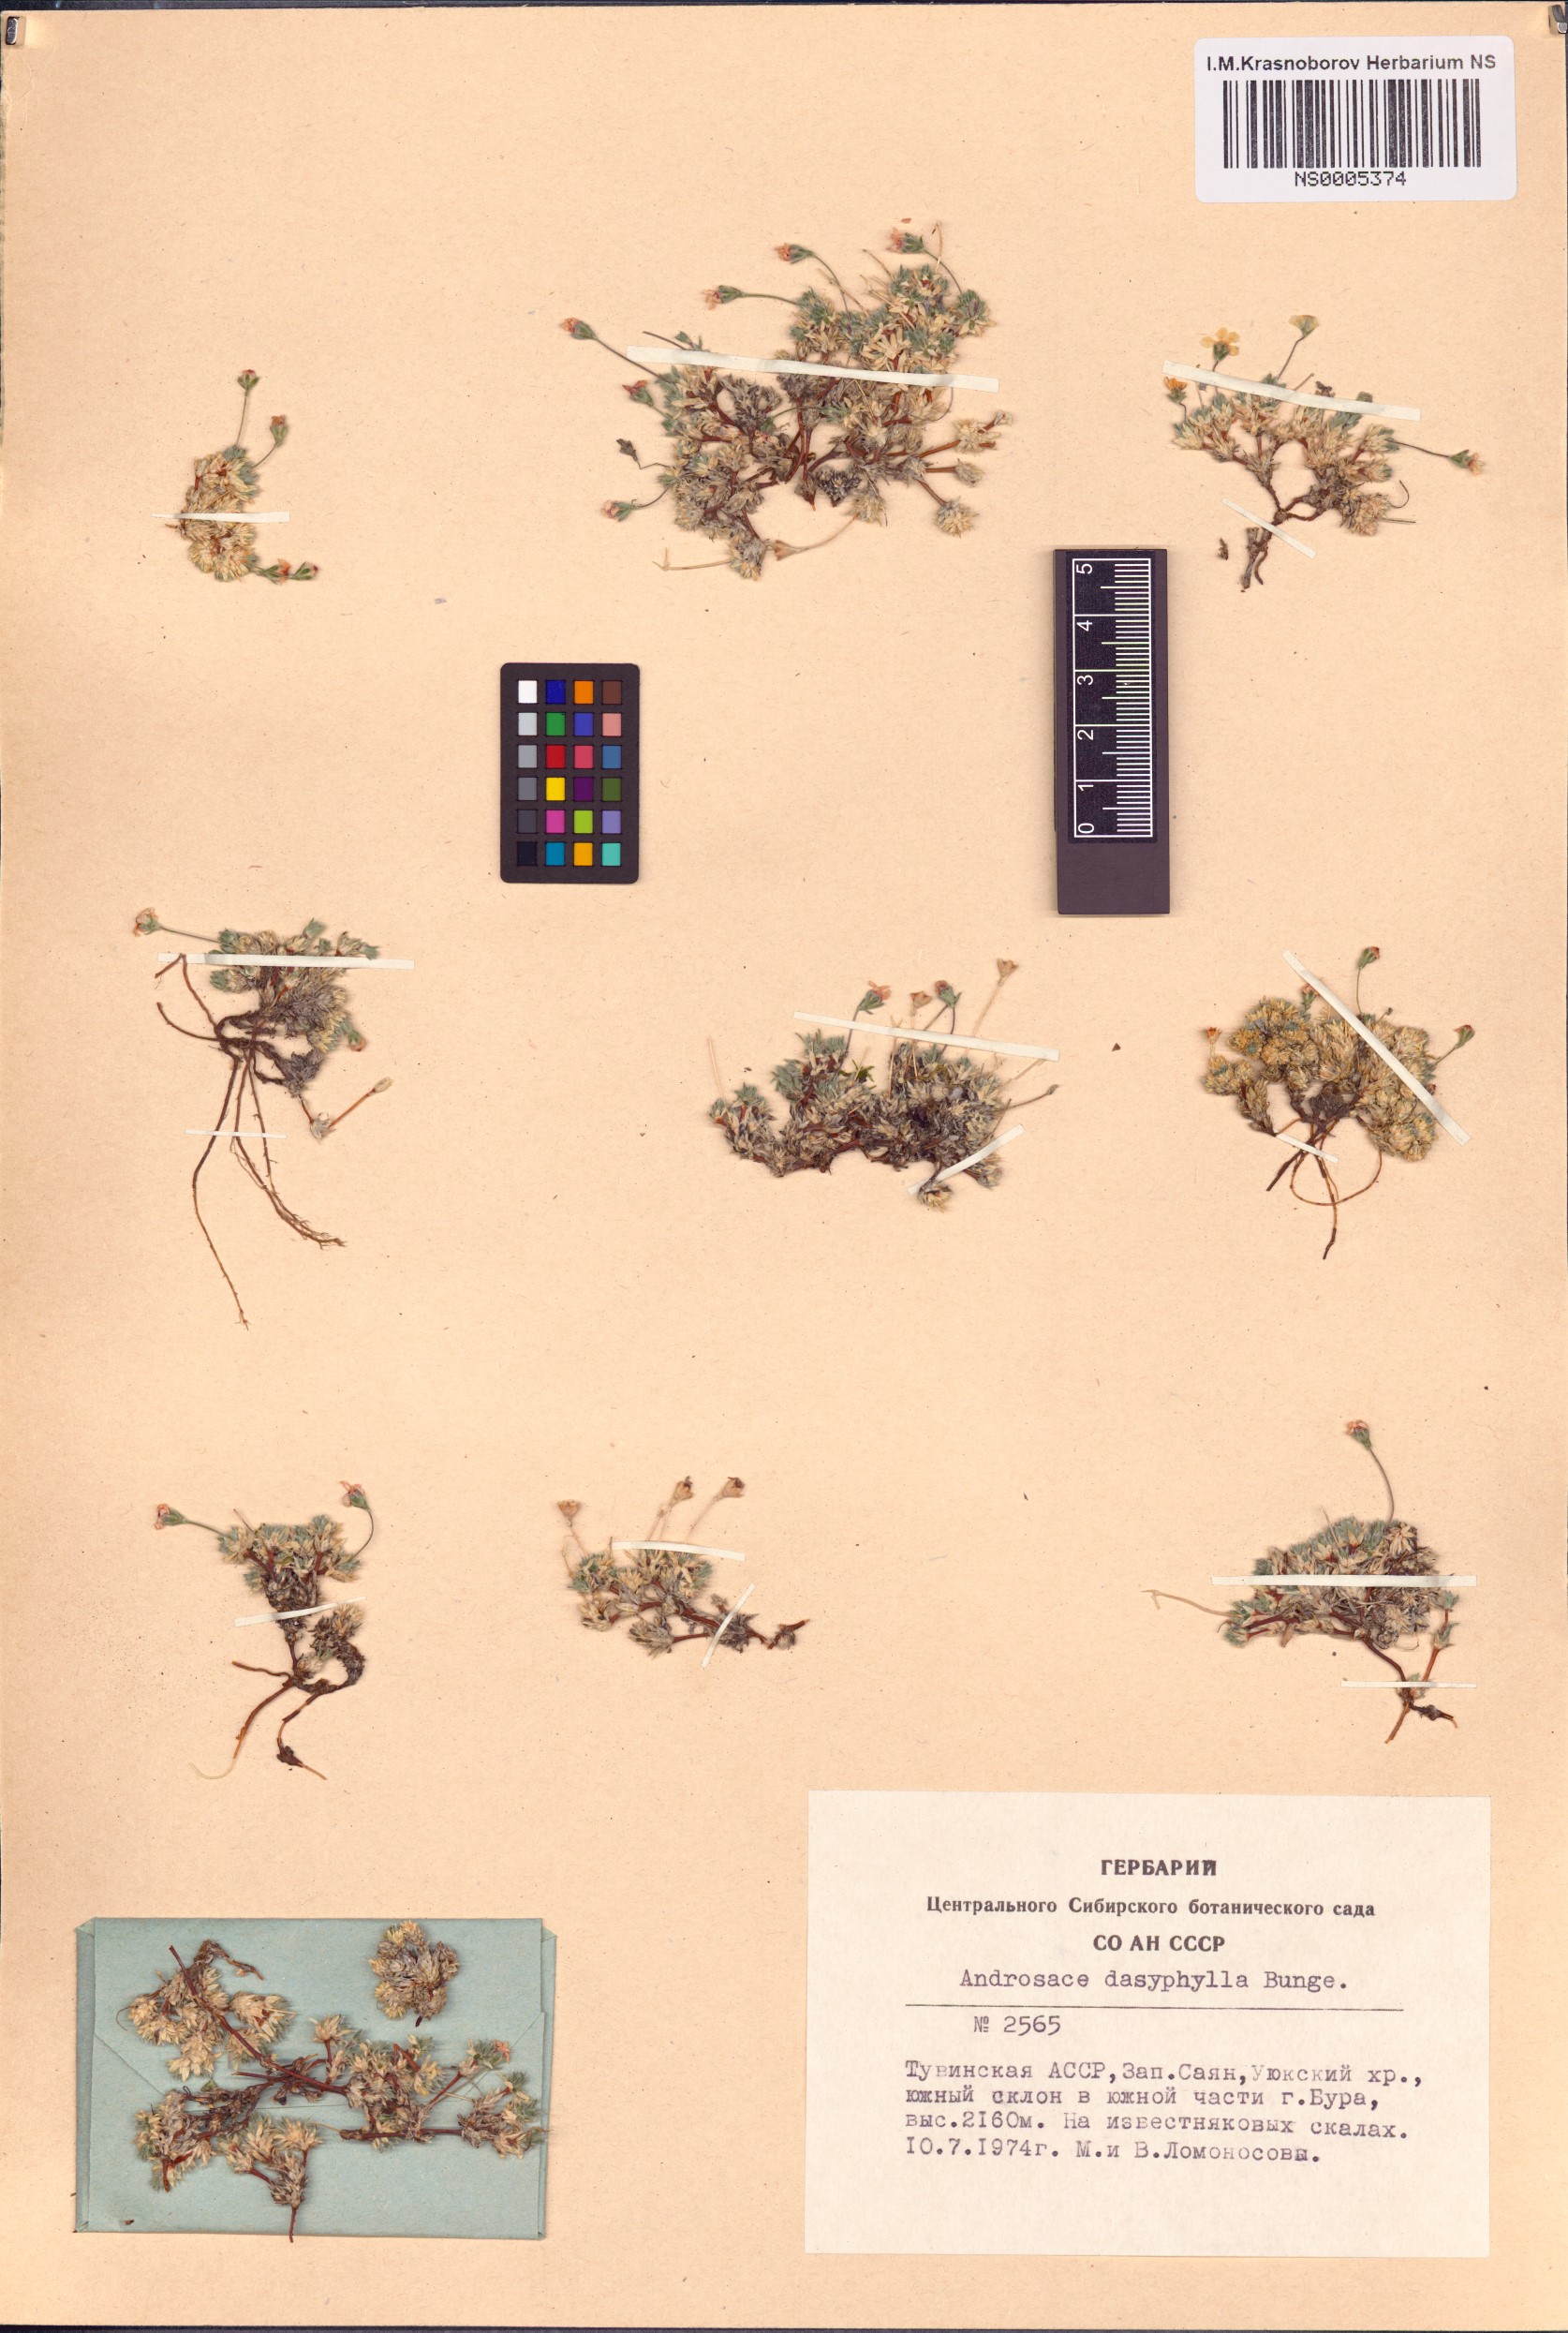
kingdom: Plantae
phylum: Tracheophyta
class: Magnoliopsida
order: Ericales
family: Primulaceae
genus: Androsace
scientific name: Androsace dasyphylla
